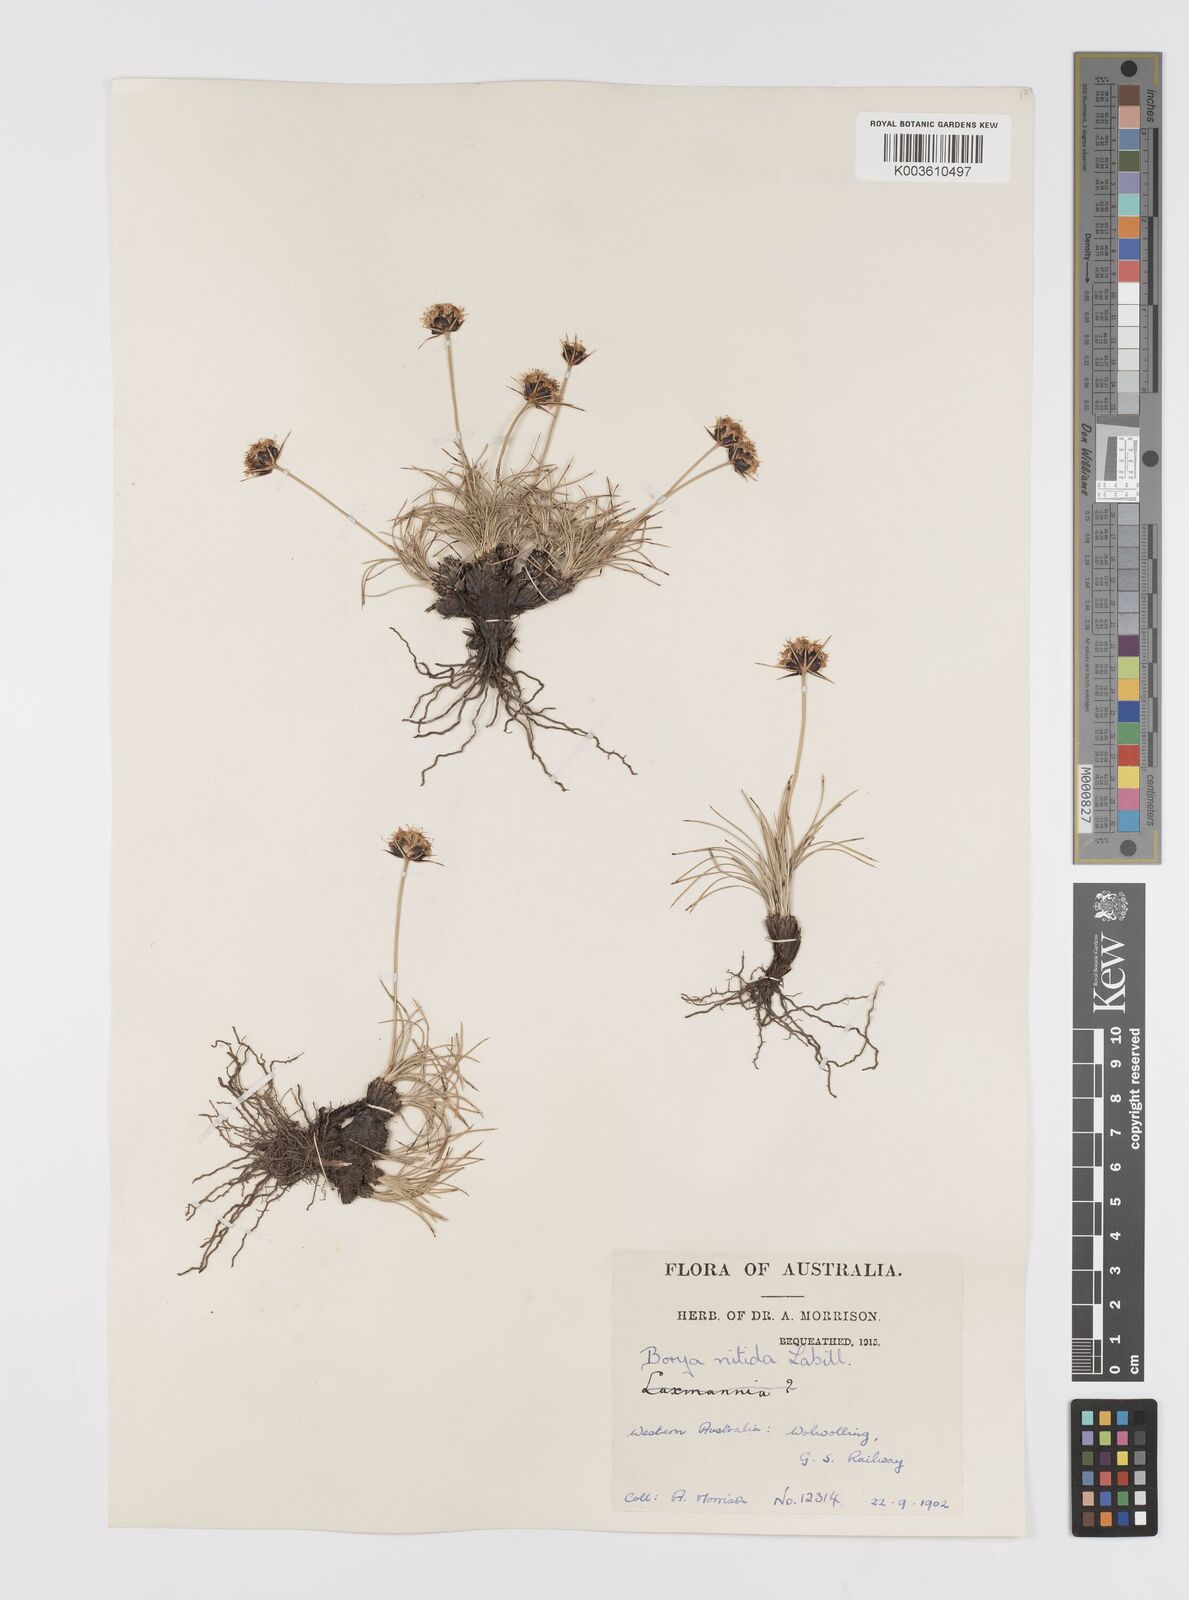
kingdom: Plantae
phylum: Tracheophyta
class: Liliopsida
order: Asparagales
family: Boryaceae
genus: Borya
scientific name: Borya nitida
